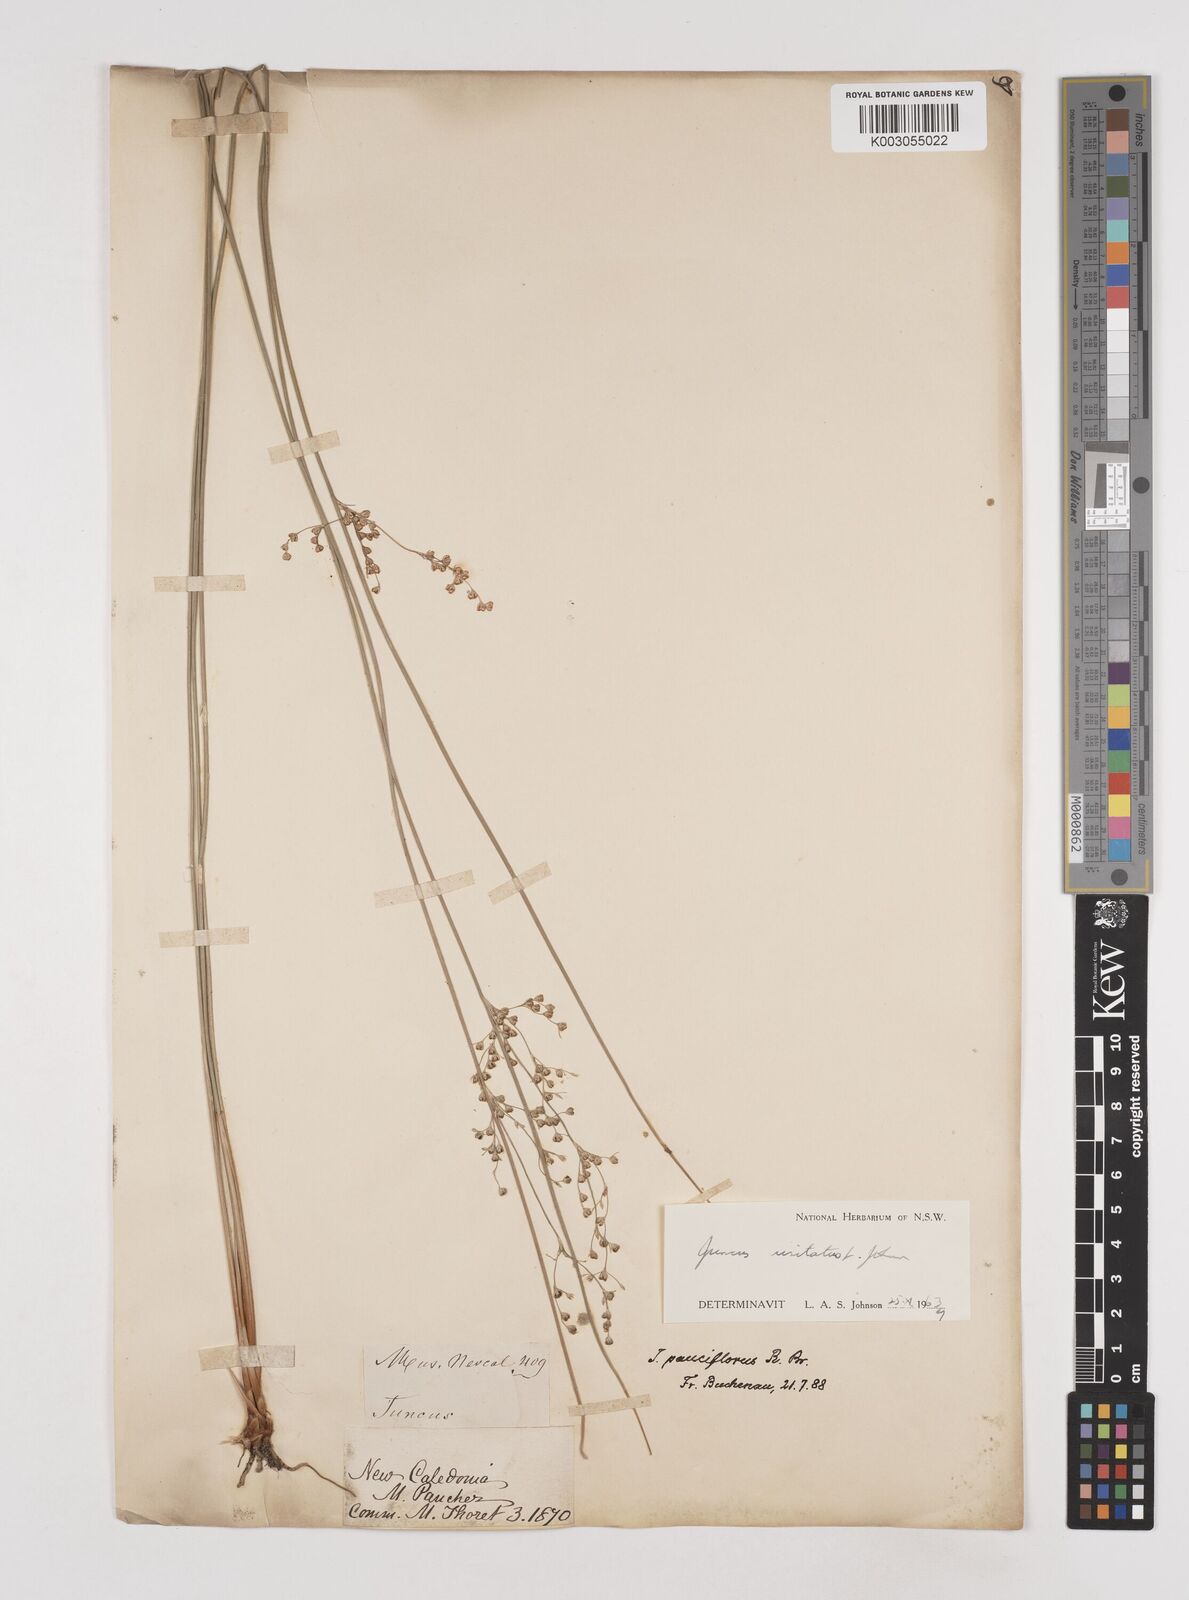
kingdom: Plantae
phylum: Tracheophyta
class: Liliopsida
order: Poales
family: Juncaceae
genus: Juncus
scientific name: Juncus usitatus
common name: Rush
